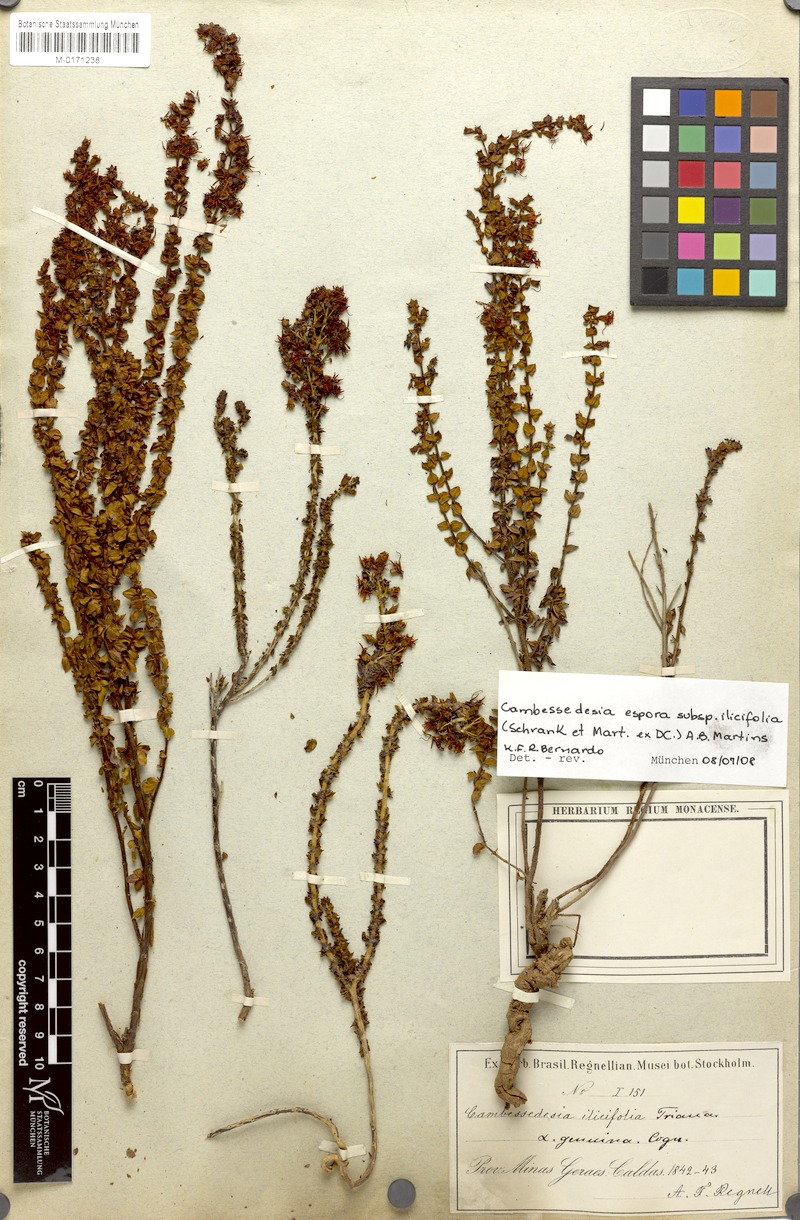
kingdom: Plantae
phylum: Tracheophyta
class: Magnoliopsida
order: Myrtales
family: Melastomataceae
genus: Cambessedesia
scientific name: Cambessedesia espora
